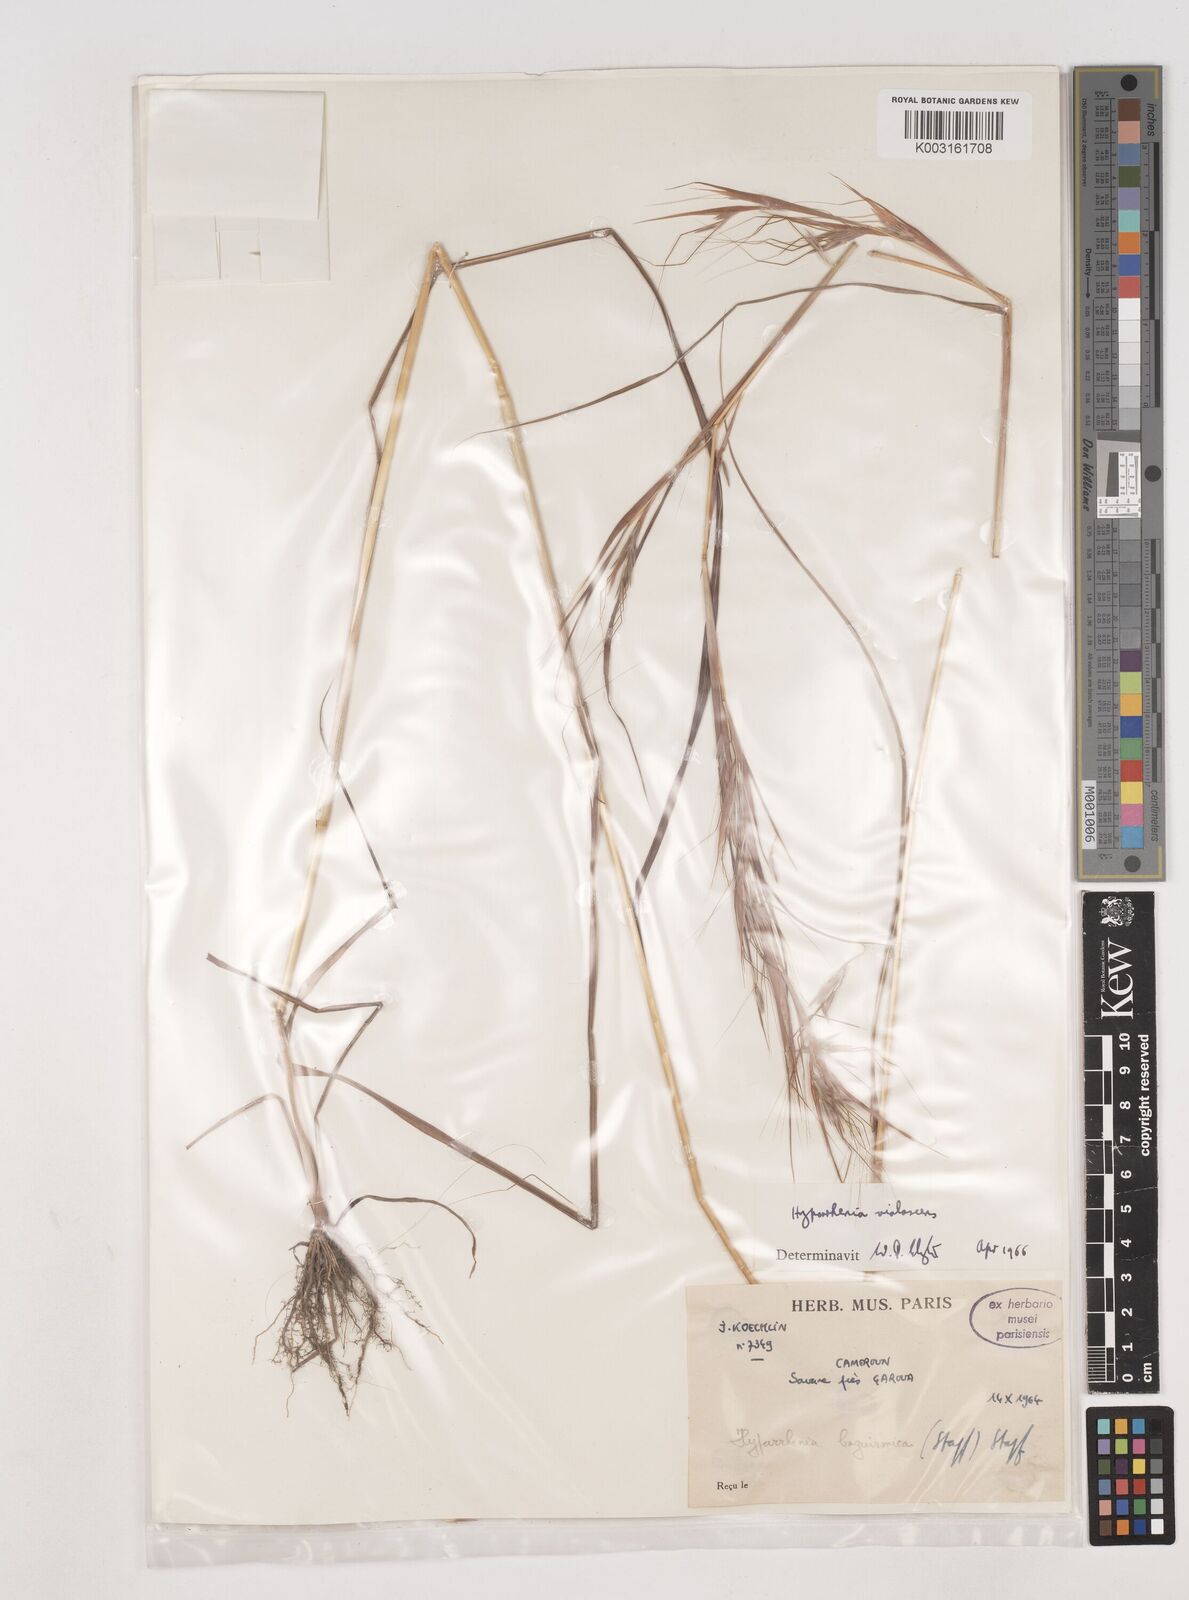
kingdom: Plantae
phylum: Tracheophyta
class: Liliopsida
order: Poales
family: Poaceae
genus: Hyparrhenia
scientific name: Hyparrhenia violascens
